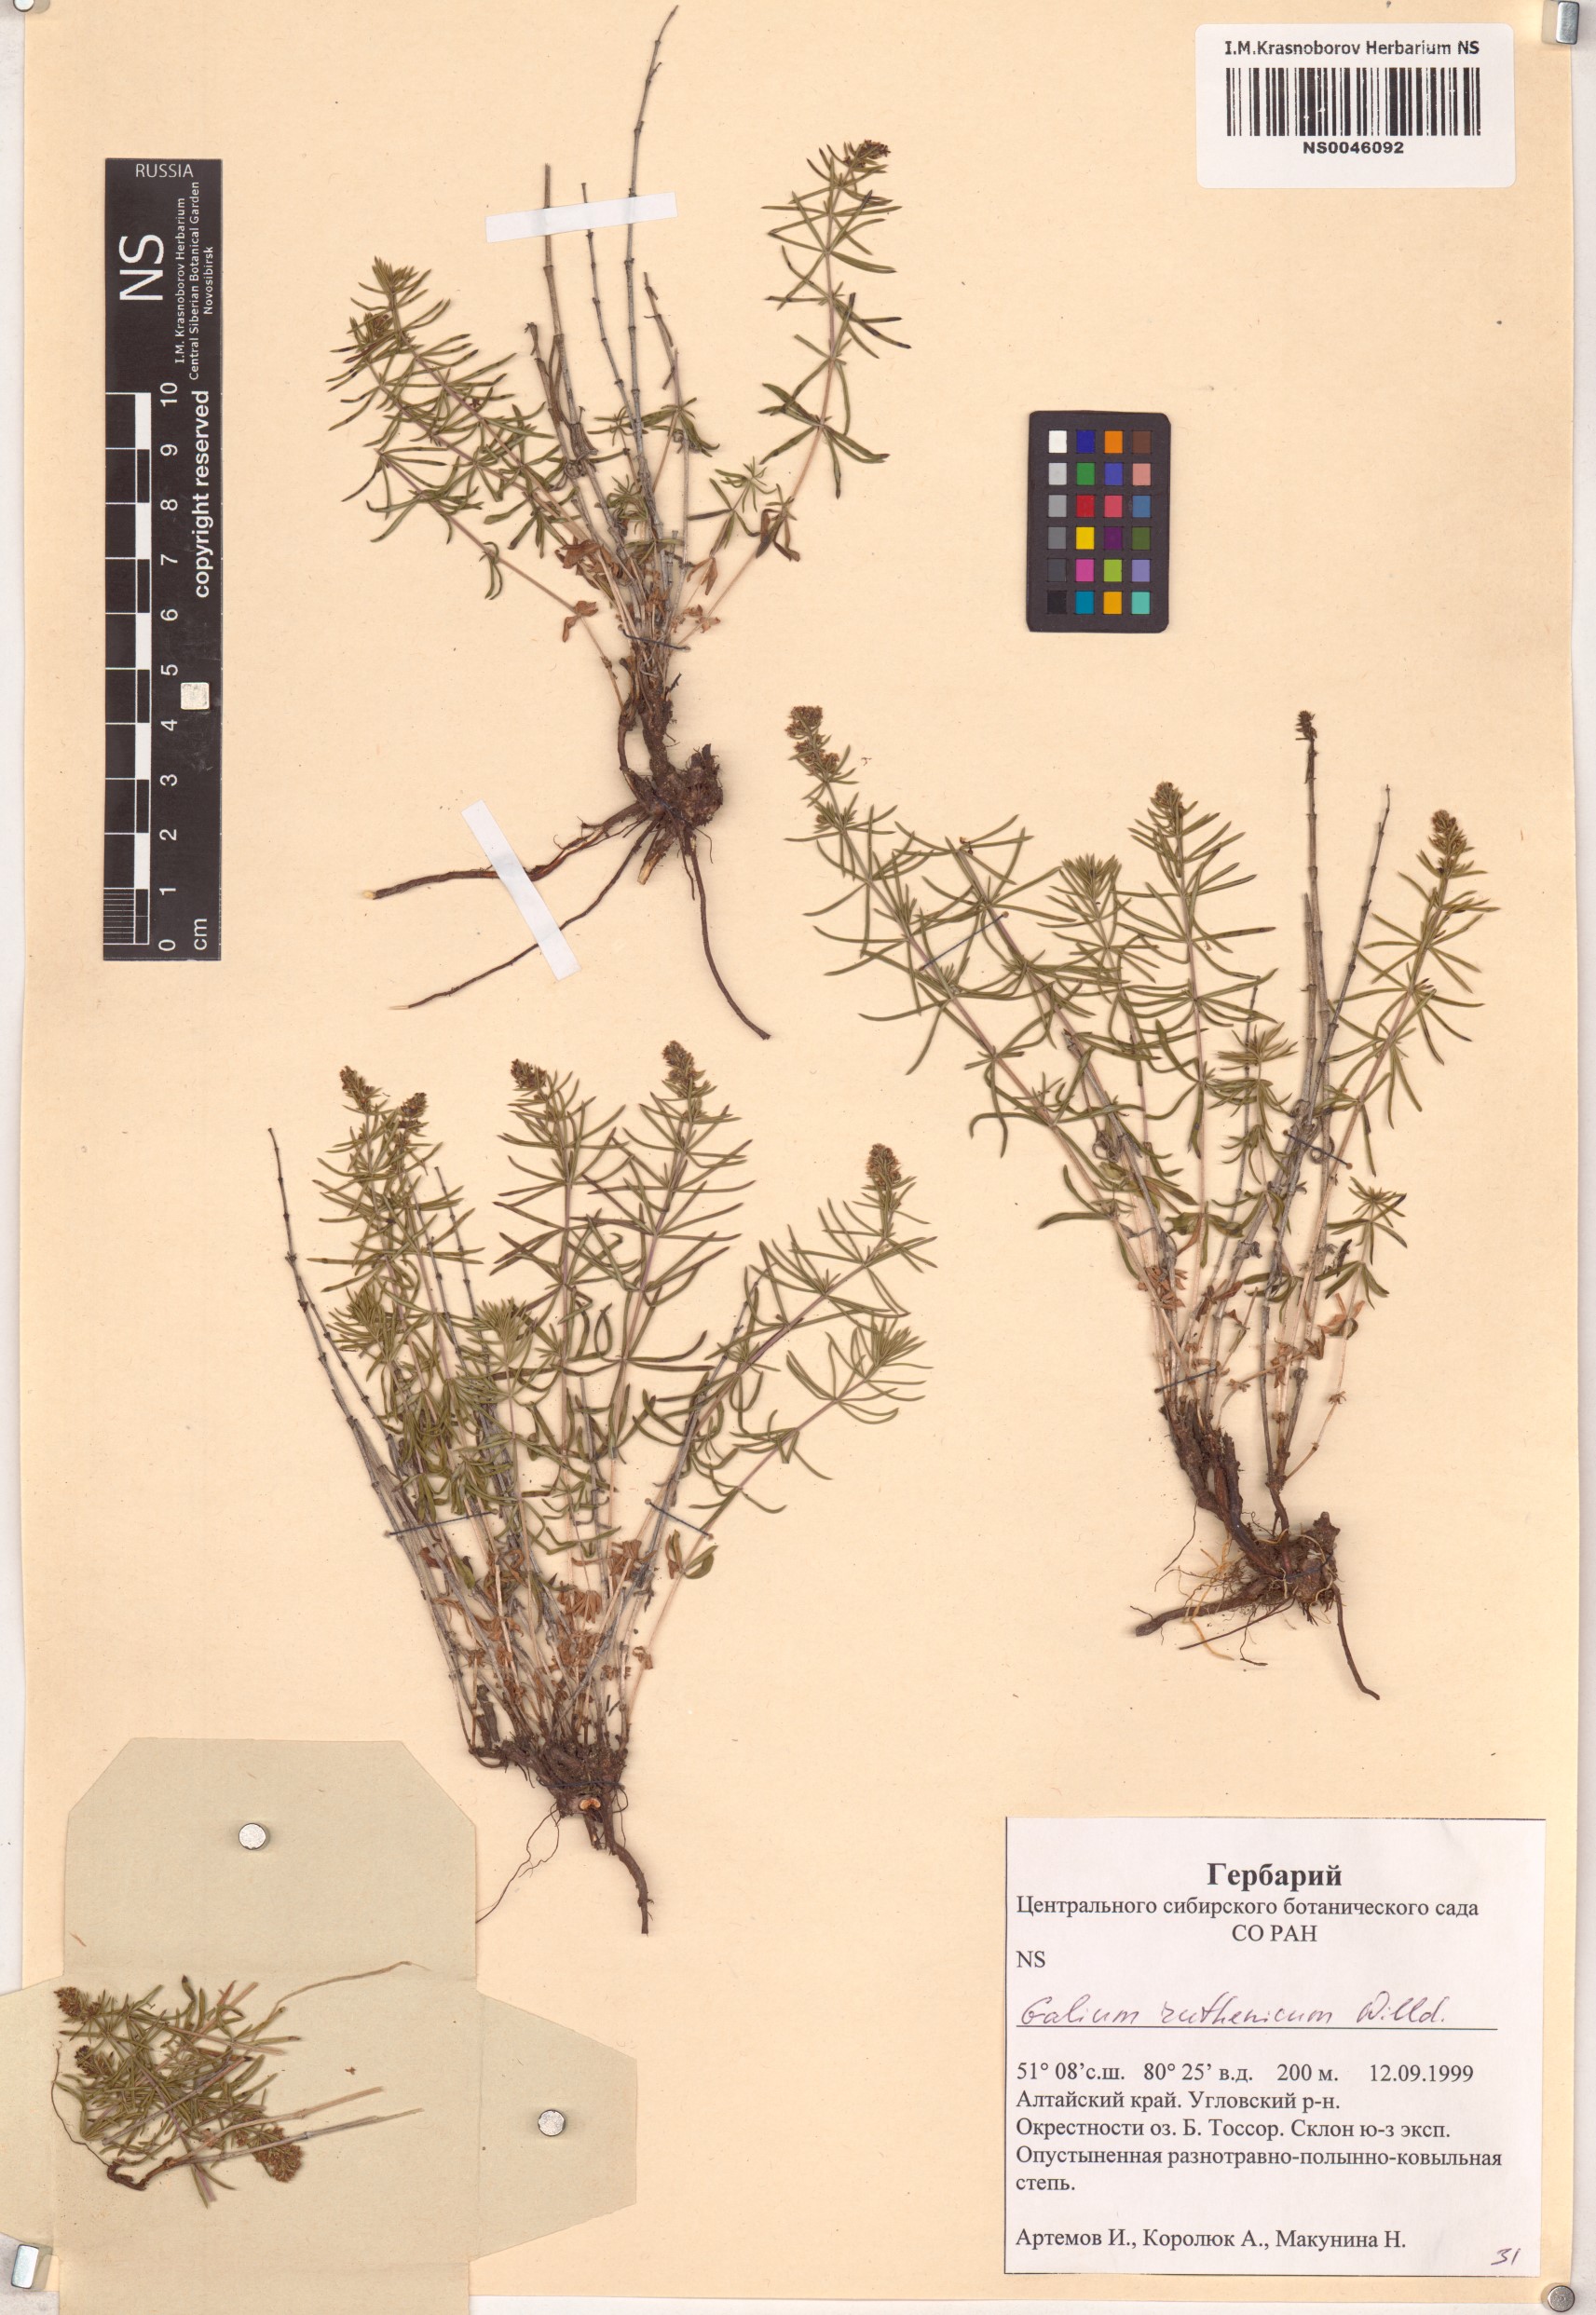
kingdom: Plantae
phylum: Tracheophyta
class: Magnoliopsida
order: Gentianales
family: Rubiaceae
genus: Galium
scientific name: Galium verum
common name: Lady's bedstraw
